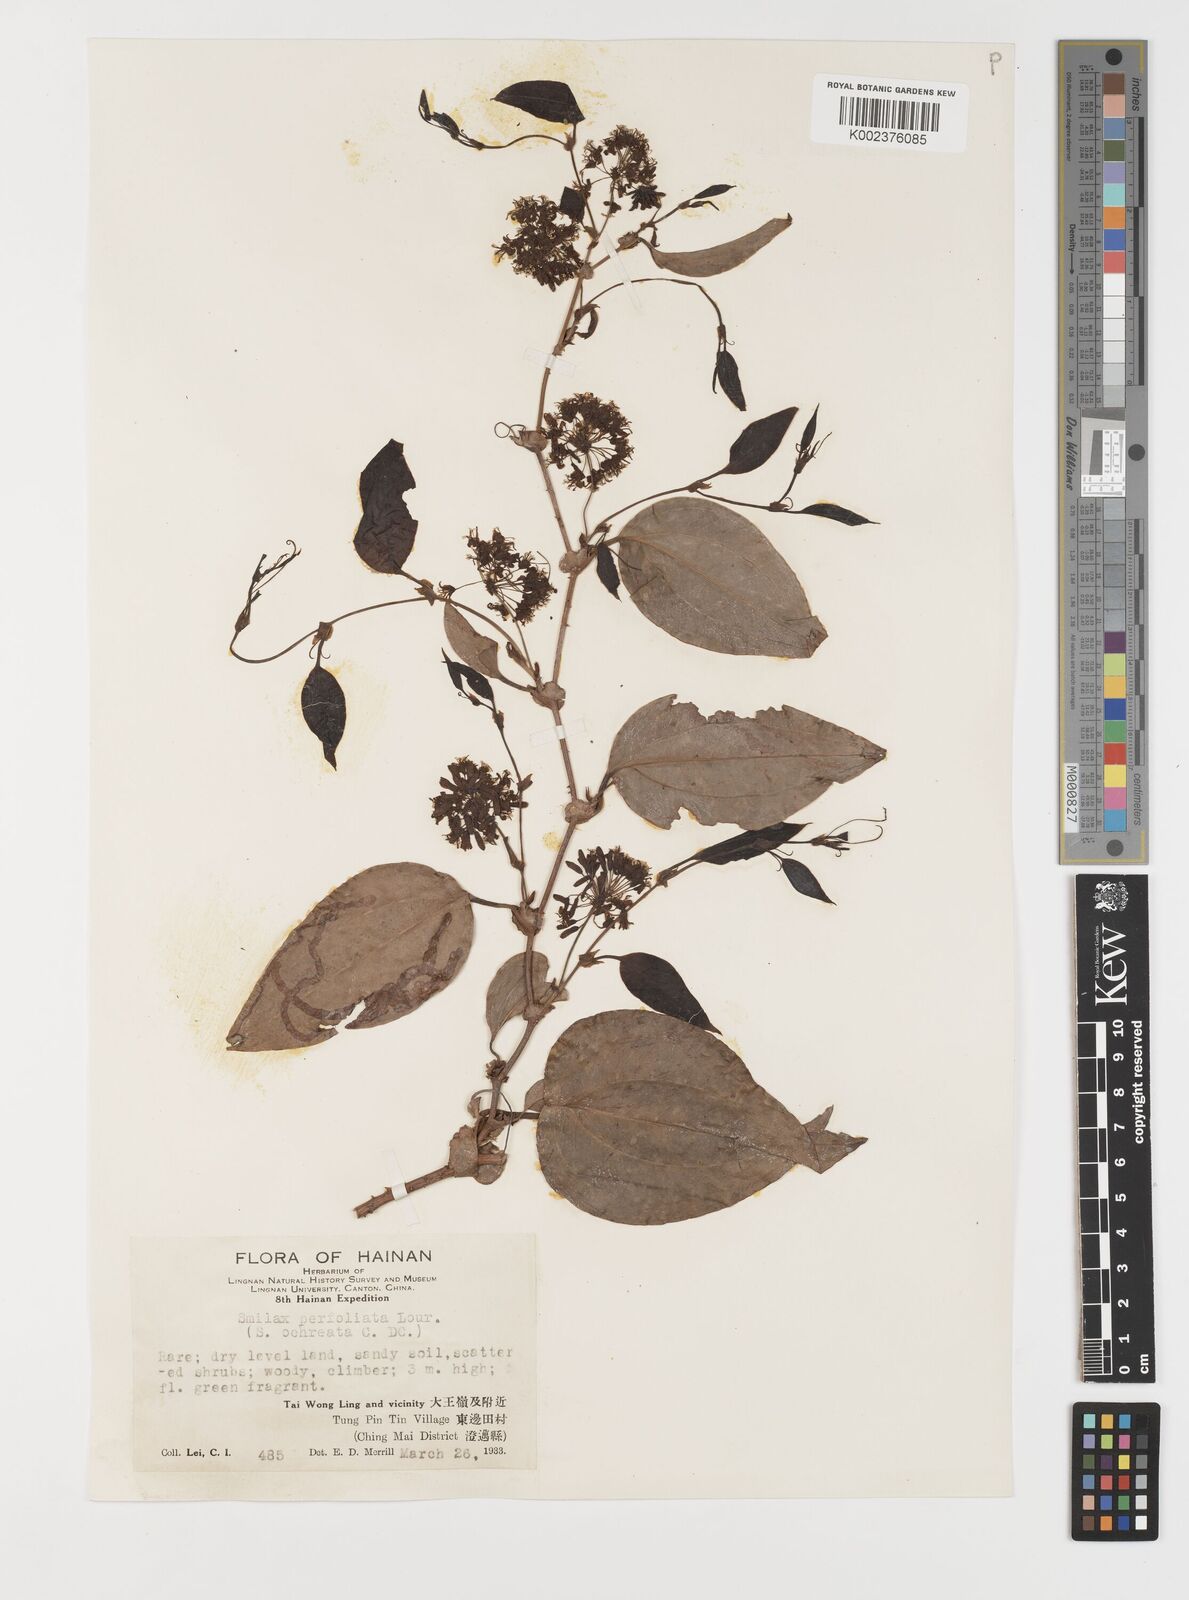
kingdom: Plantae
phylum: Tracheophyta
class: Liliopsida
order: Liliales
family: Smilacaceae
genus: Smilax
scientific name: Smilax ocreata
